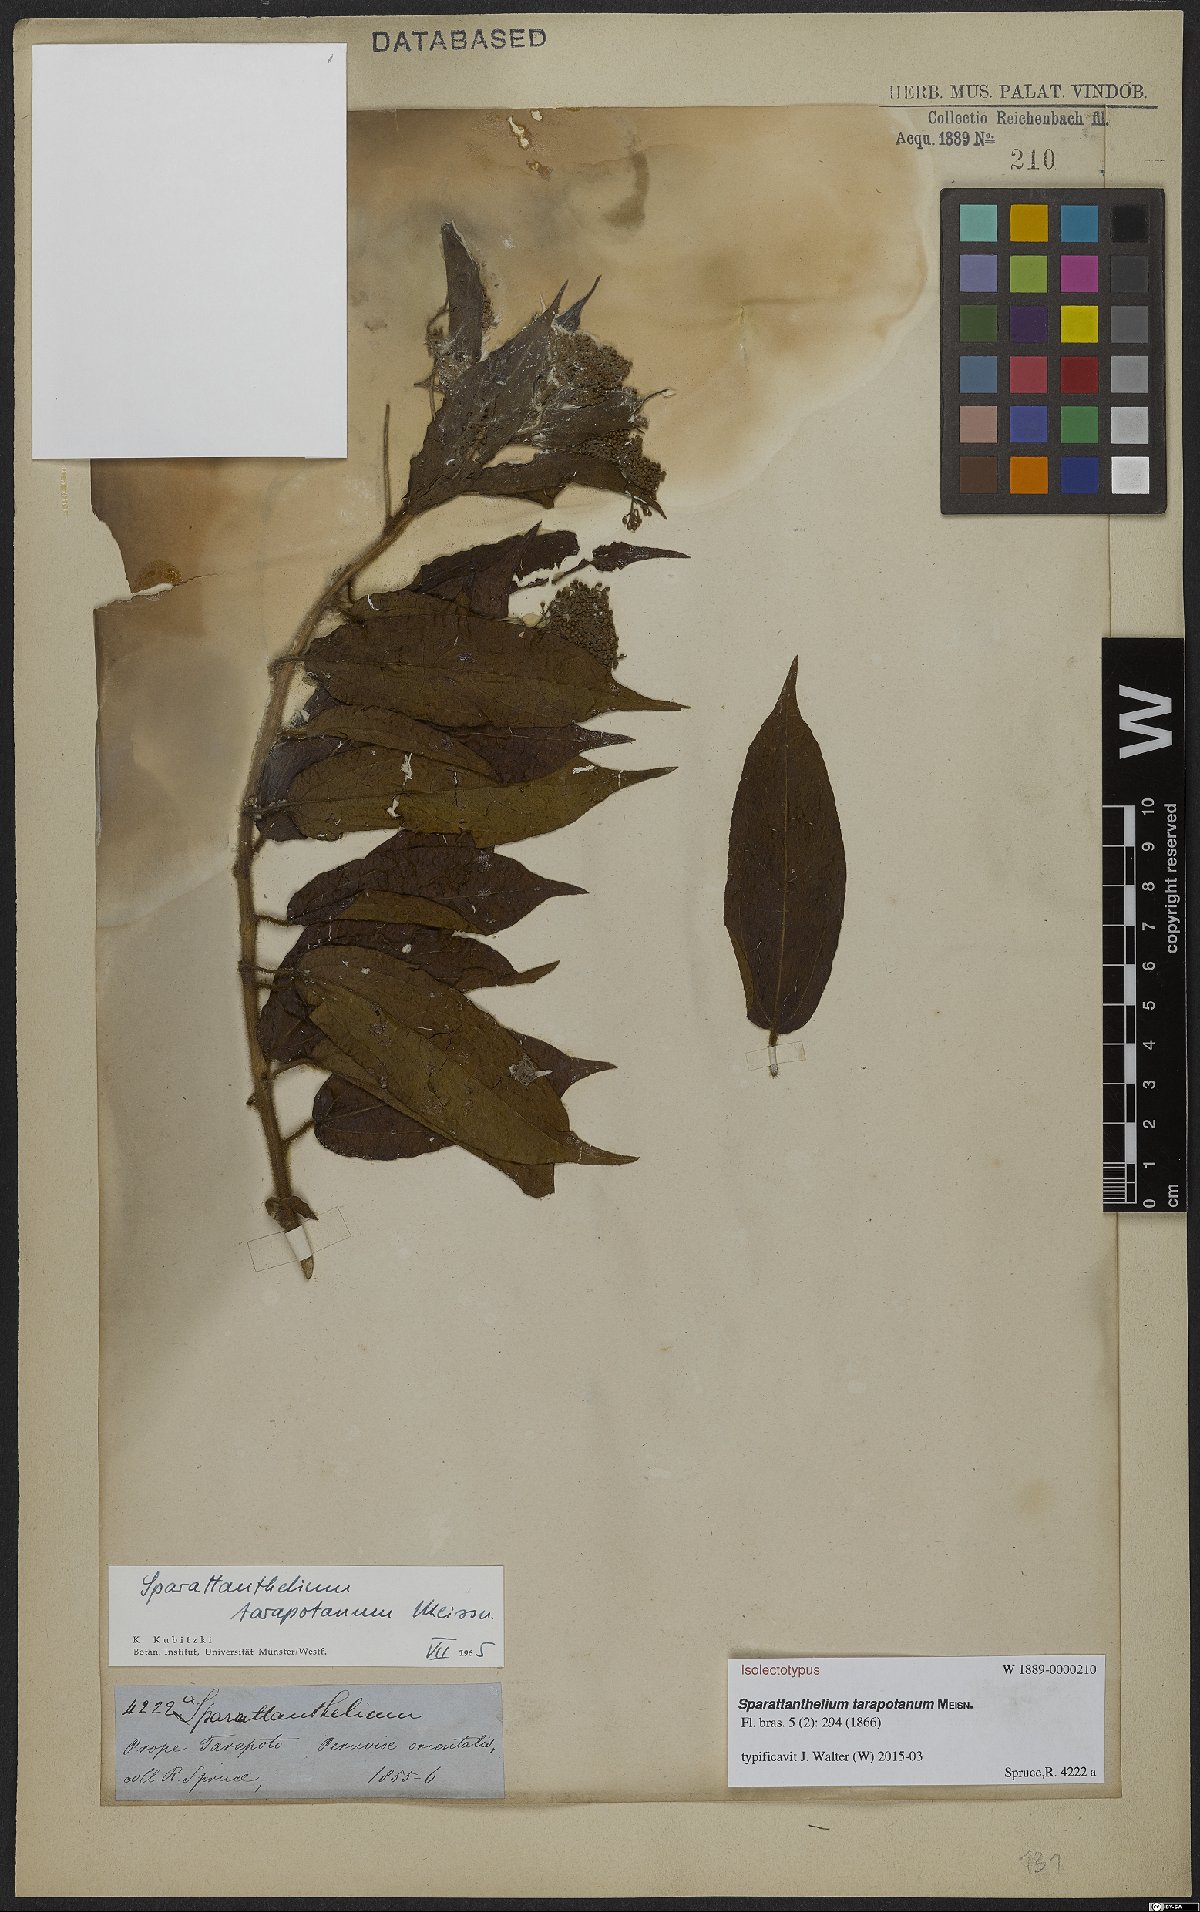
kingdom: Plantae
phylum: Tracheophyta
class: Magnoliopsida
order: Laurales
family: Hernandiaceae
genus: Sparattanthelium
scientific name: Sparattanthelium tarapotanum
